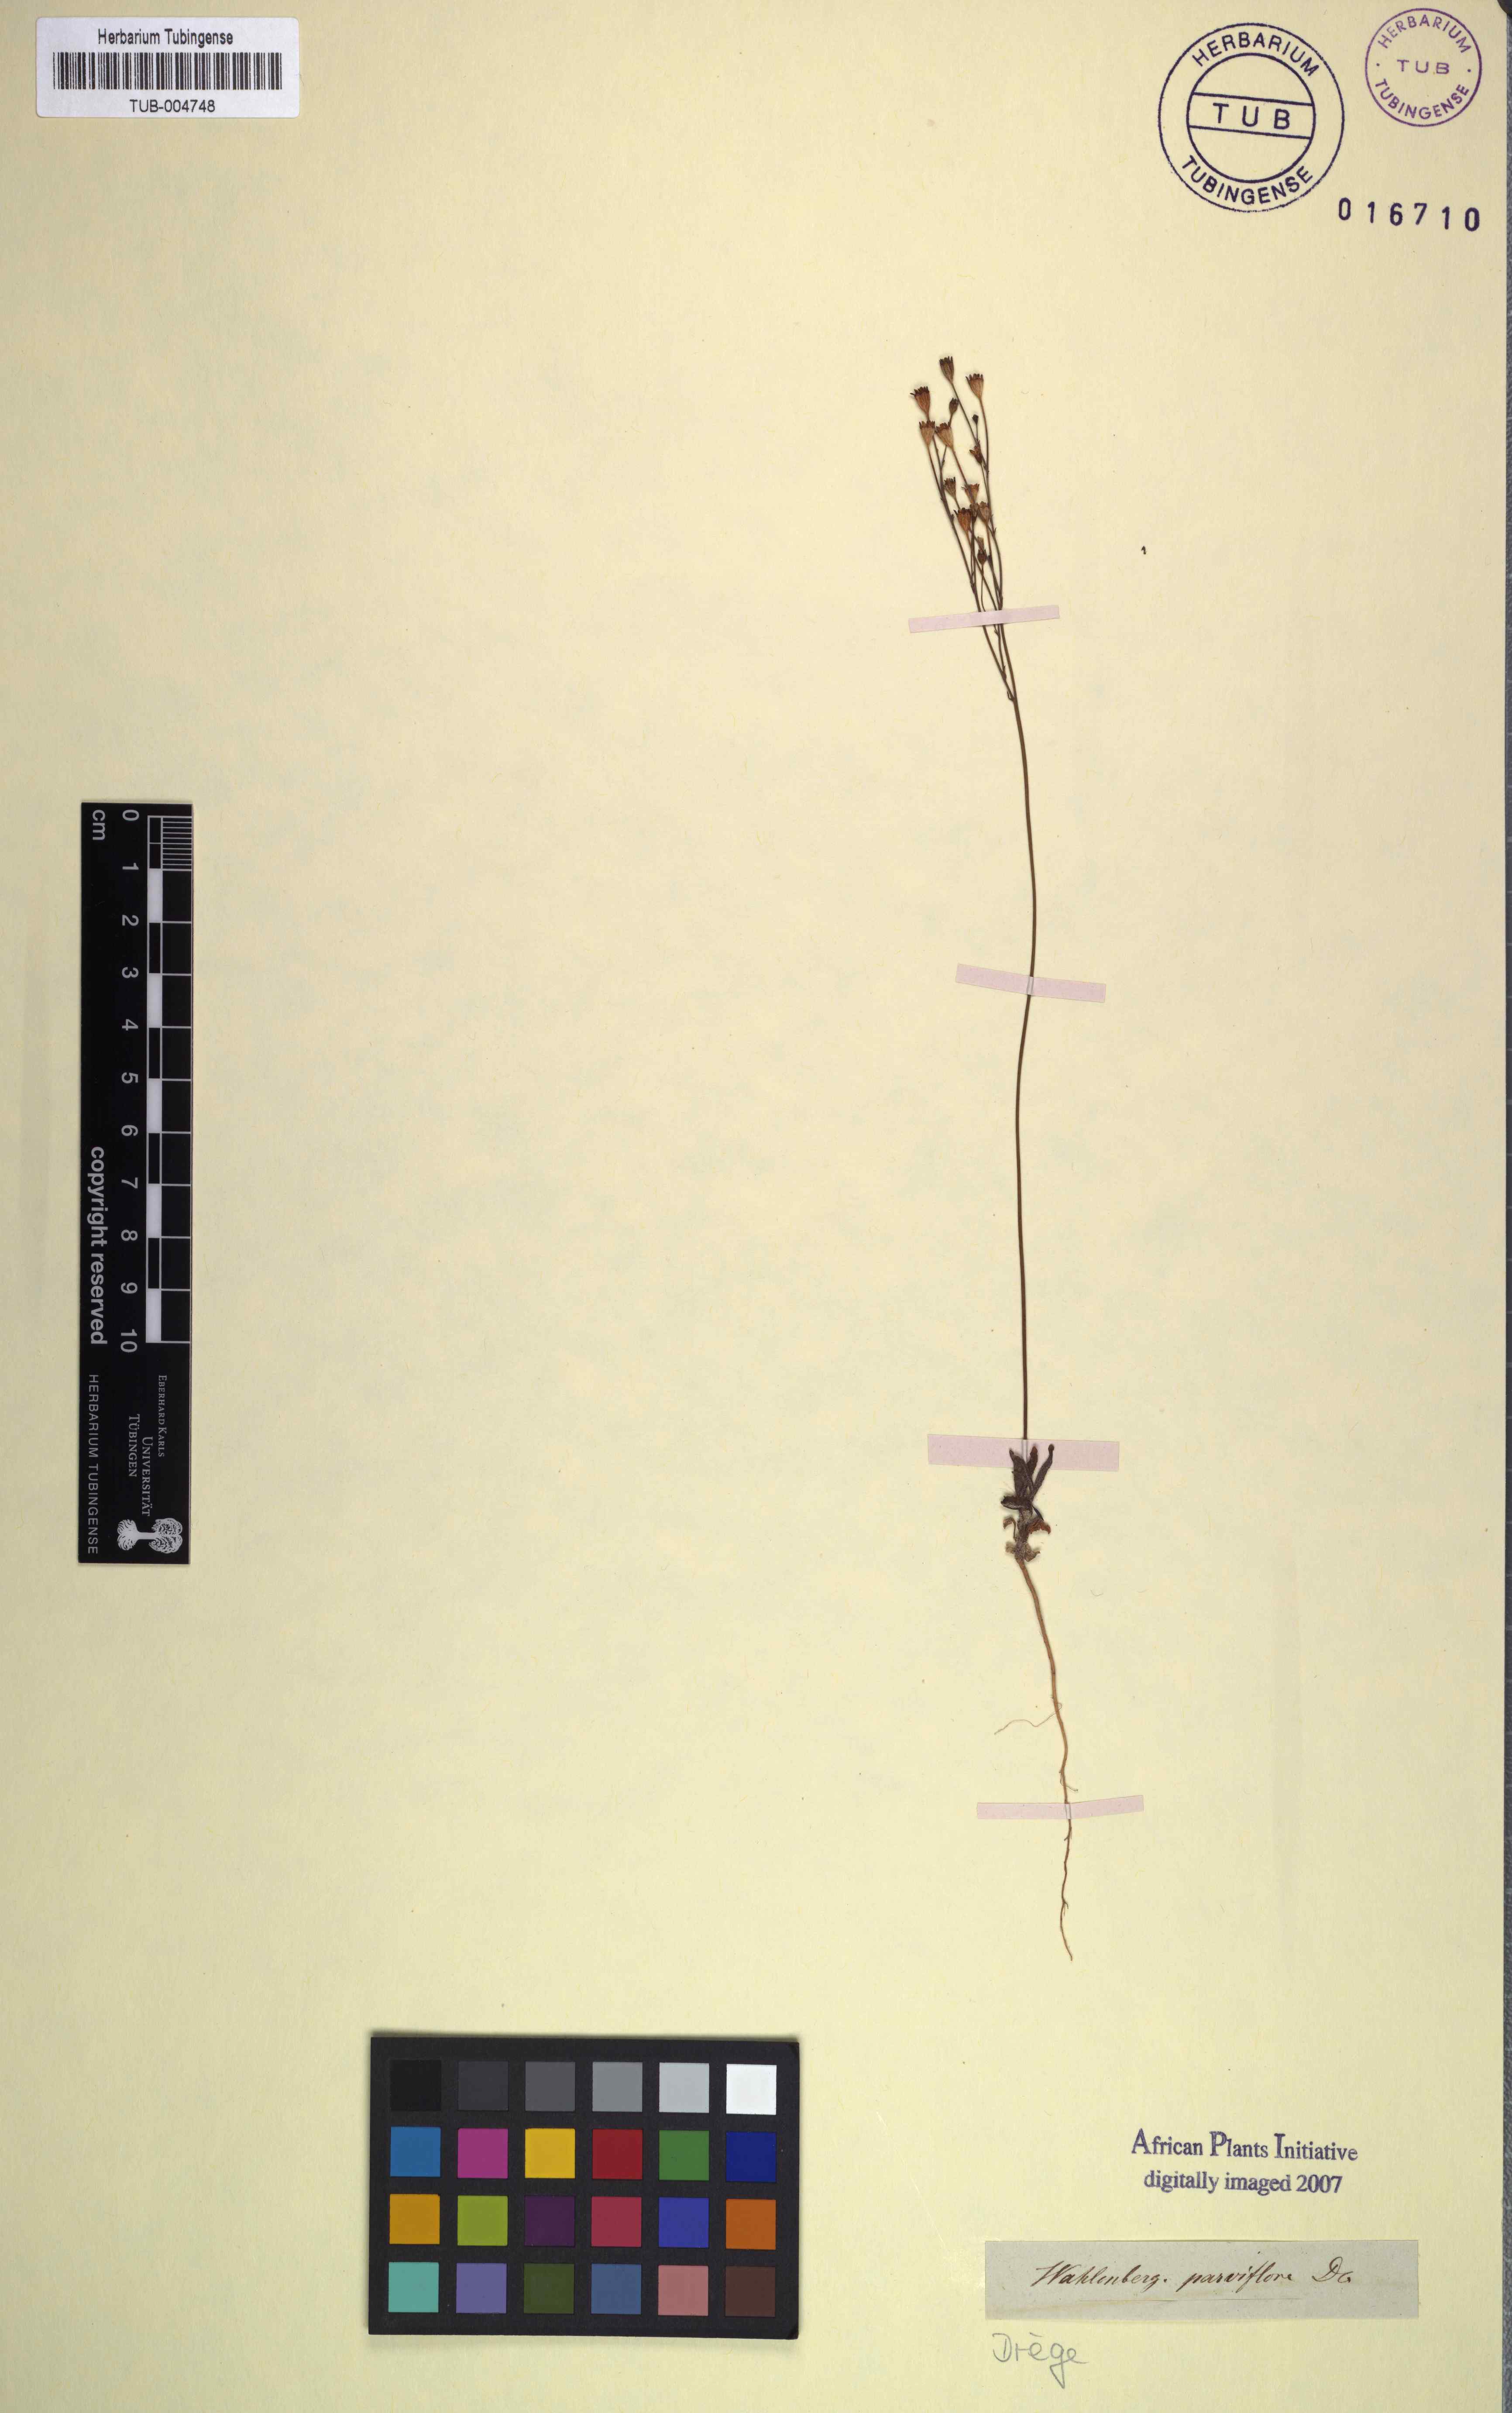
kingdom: Plantae
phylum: Tracheophyta
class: Magnoliopsida
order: Asterales
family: Campanulaceae
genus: Wahlenbergia
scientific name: Wahlenbergia androsacea
